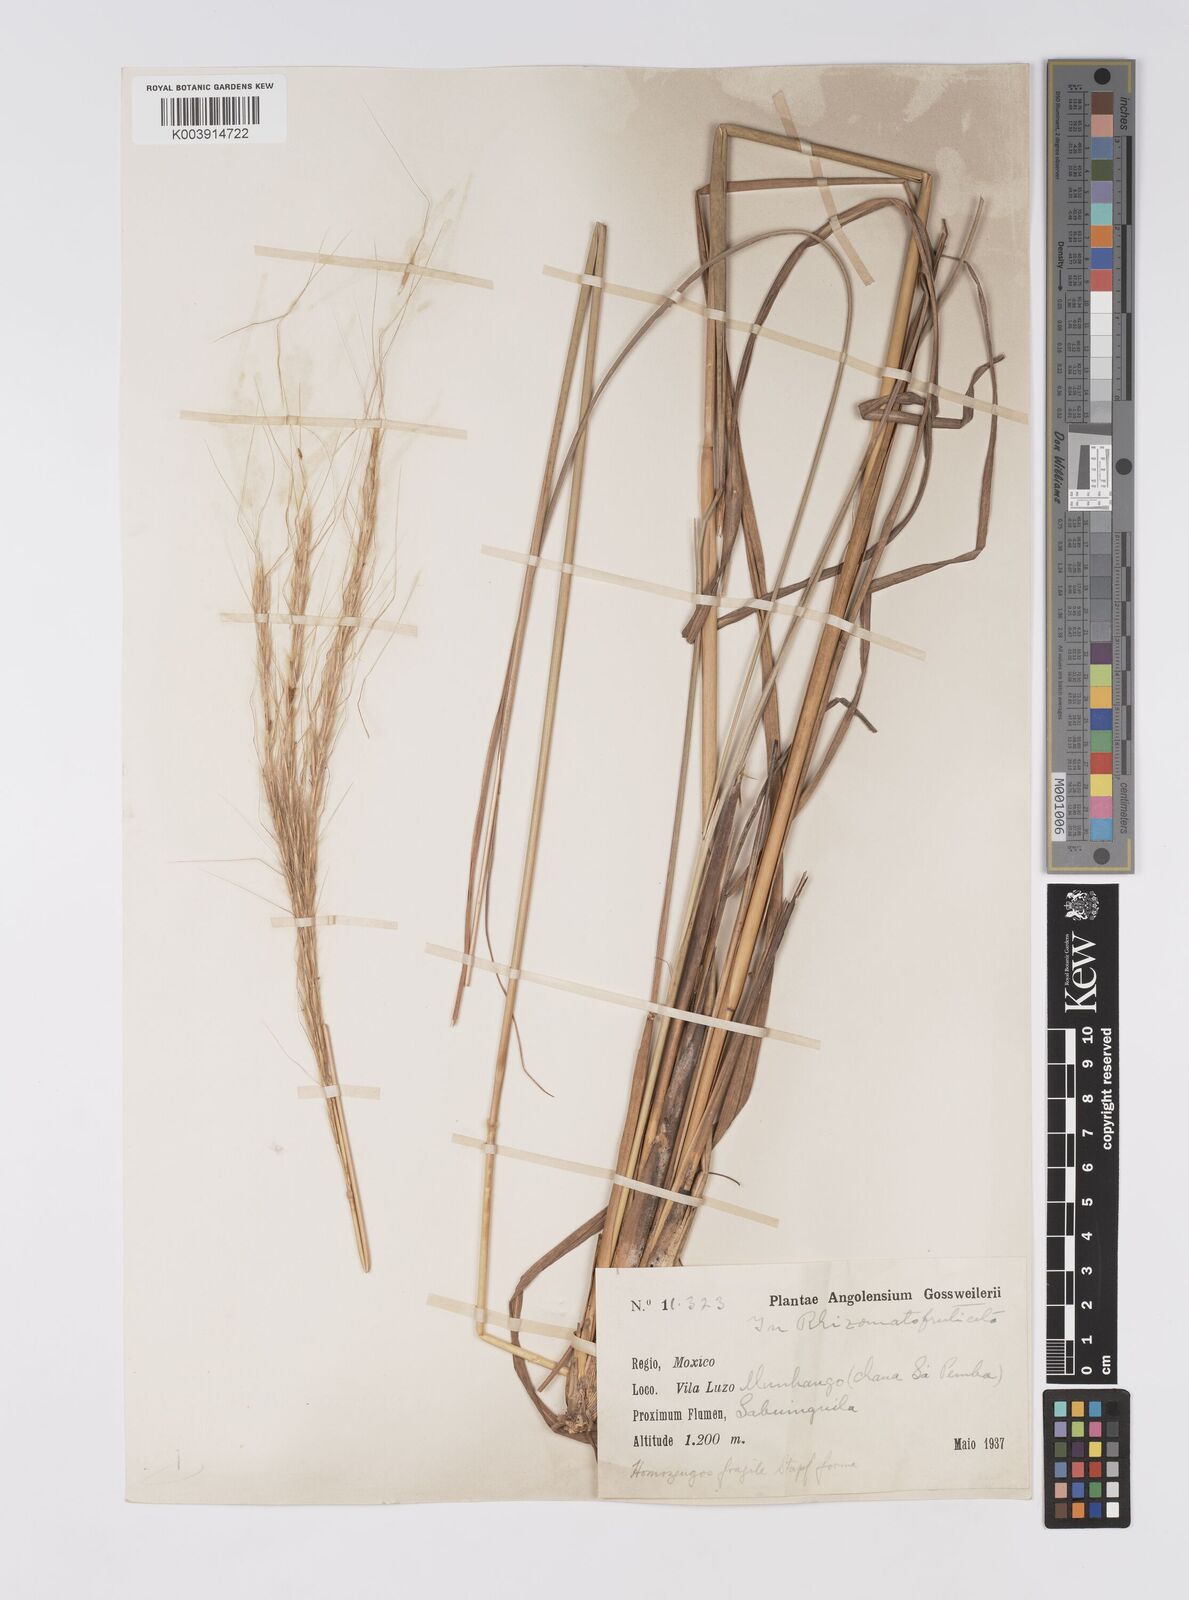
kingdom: Plantae
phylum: Tracheophyta
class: Liliopsida
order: Poales
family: Poaceae
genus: Homozeugos
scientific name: Homozeugos katakton
